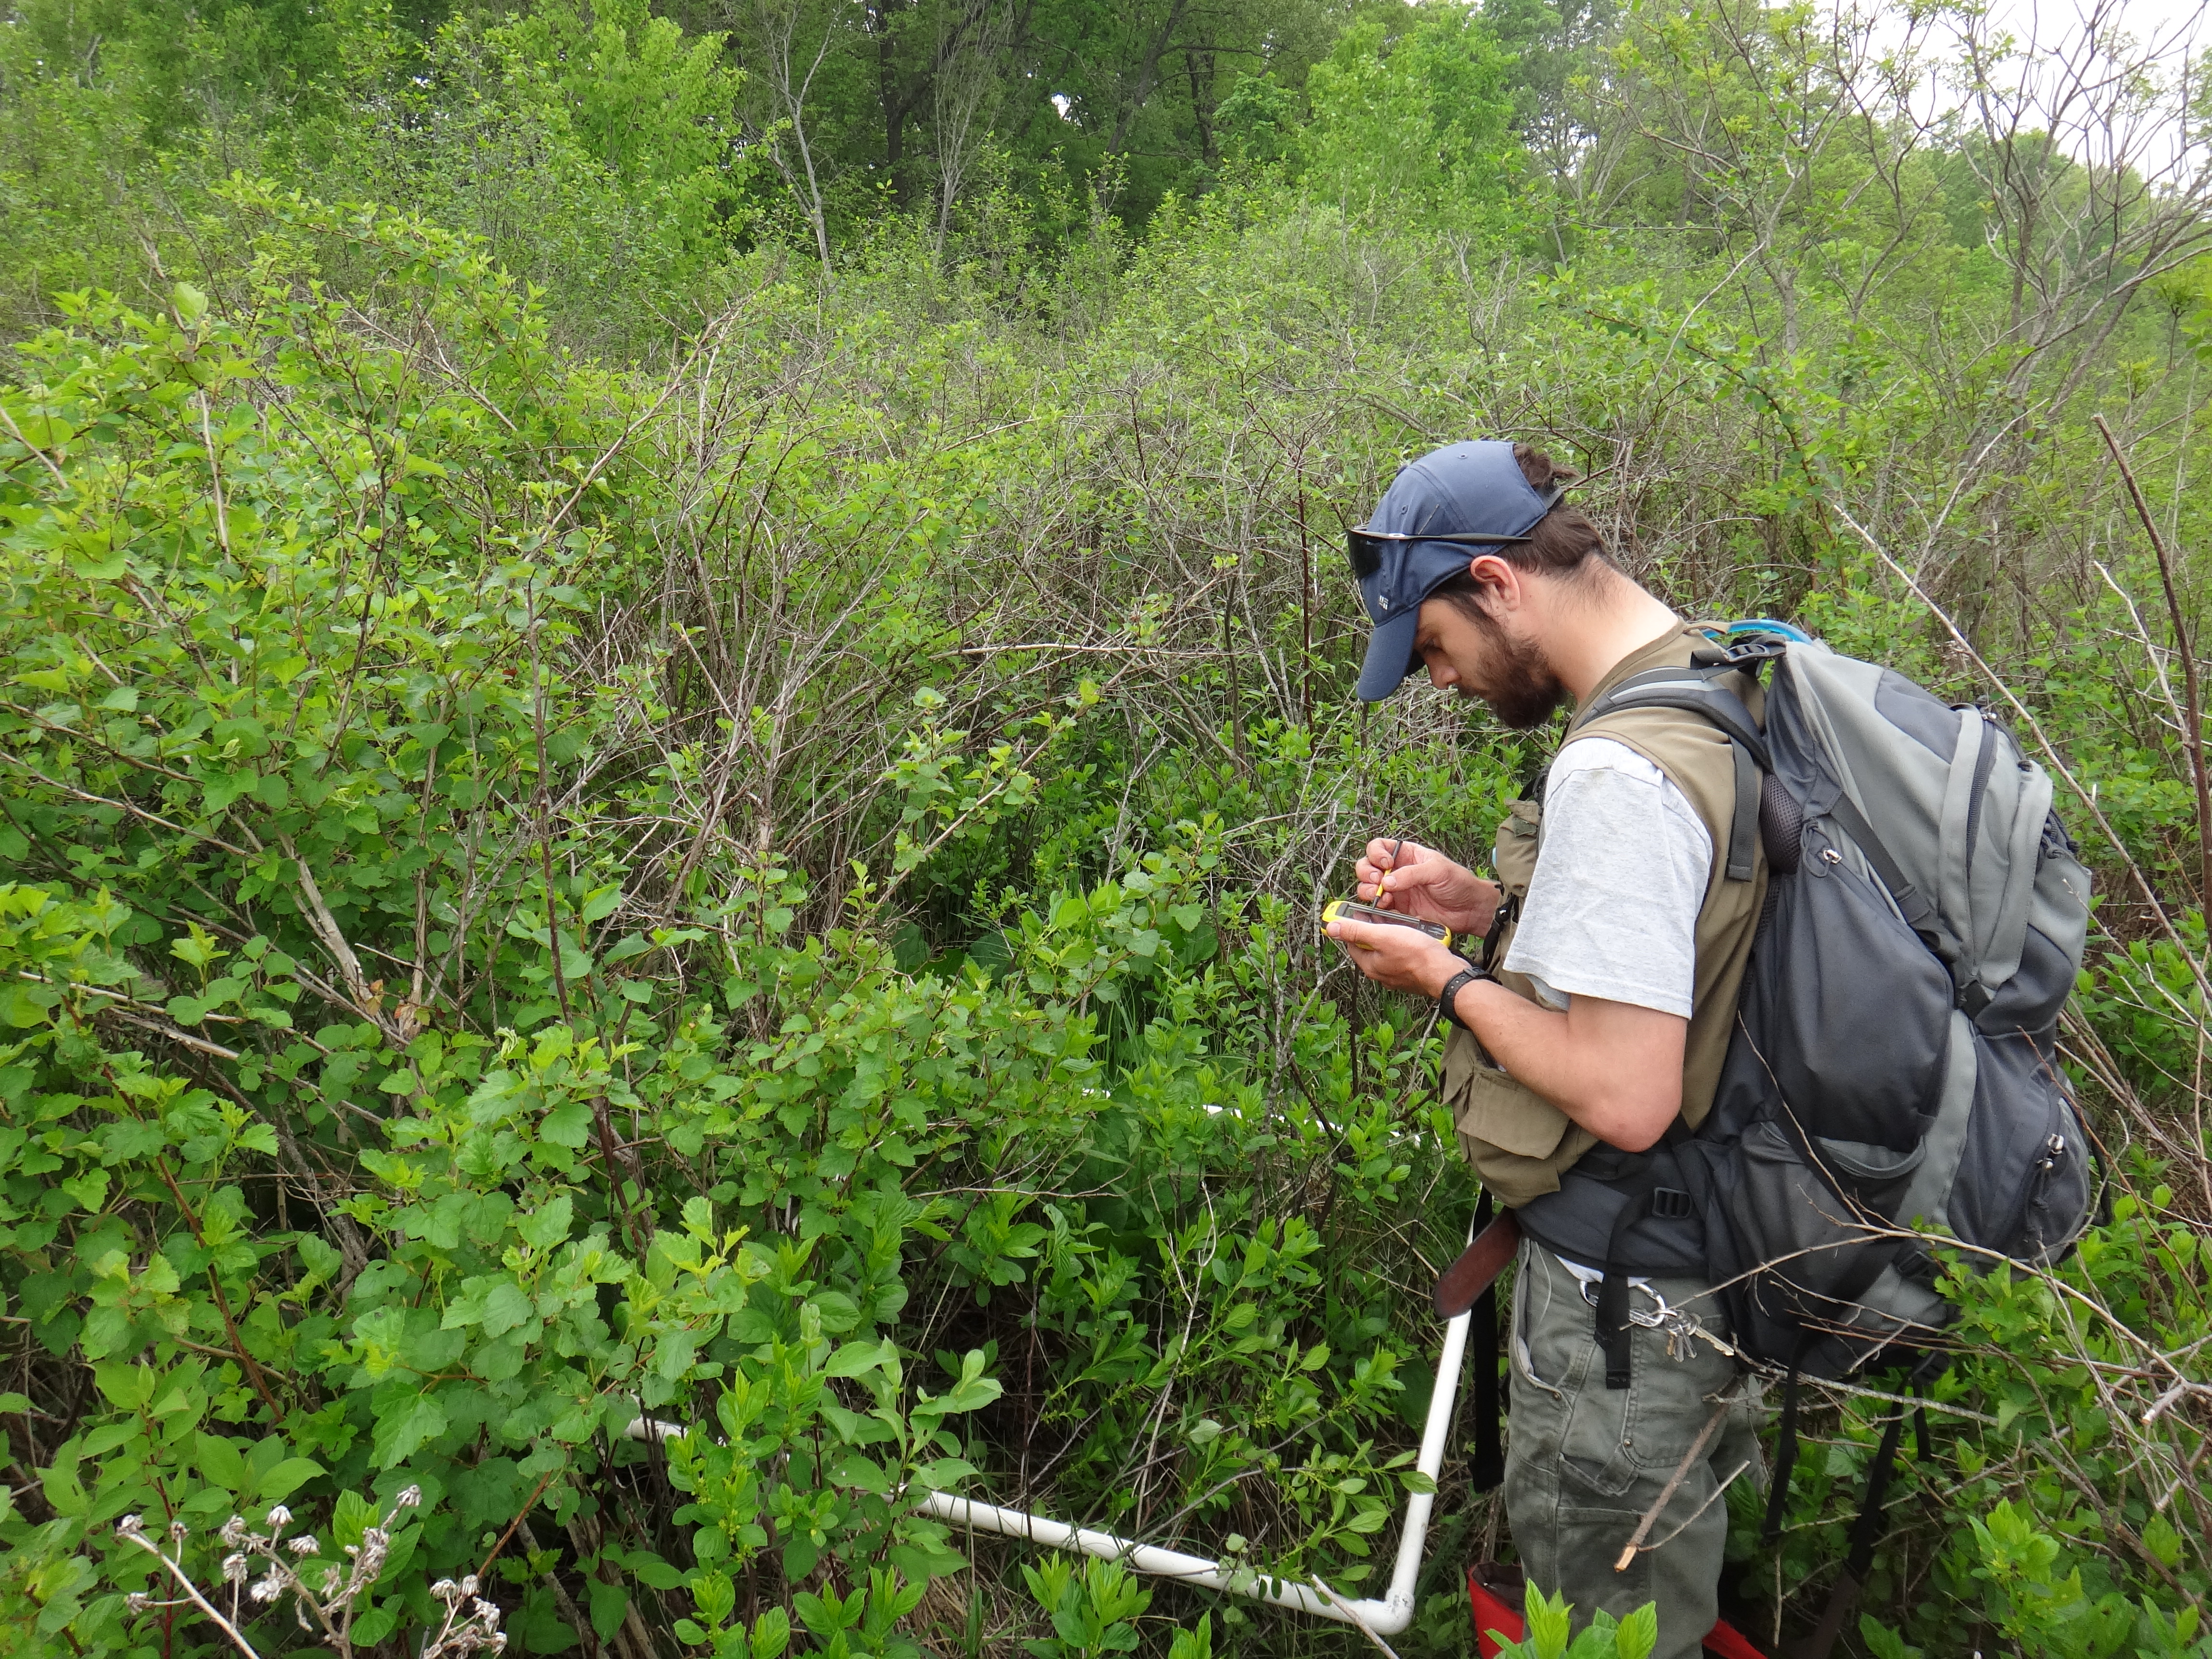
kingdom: Plantae
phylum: Tracheophyta
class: Liliopsida
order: Asparagales
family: Asparagaceae
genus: Maianthemum
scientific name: Maianthemum stellatum
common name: Little false solomon's seal
